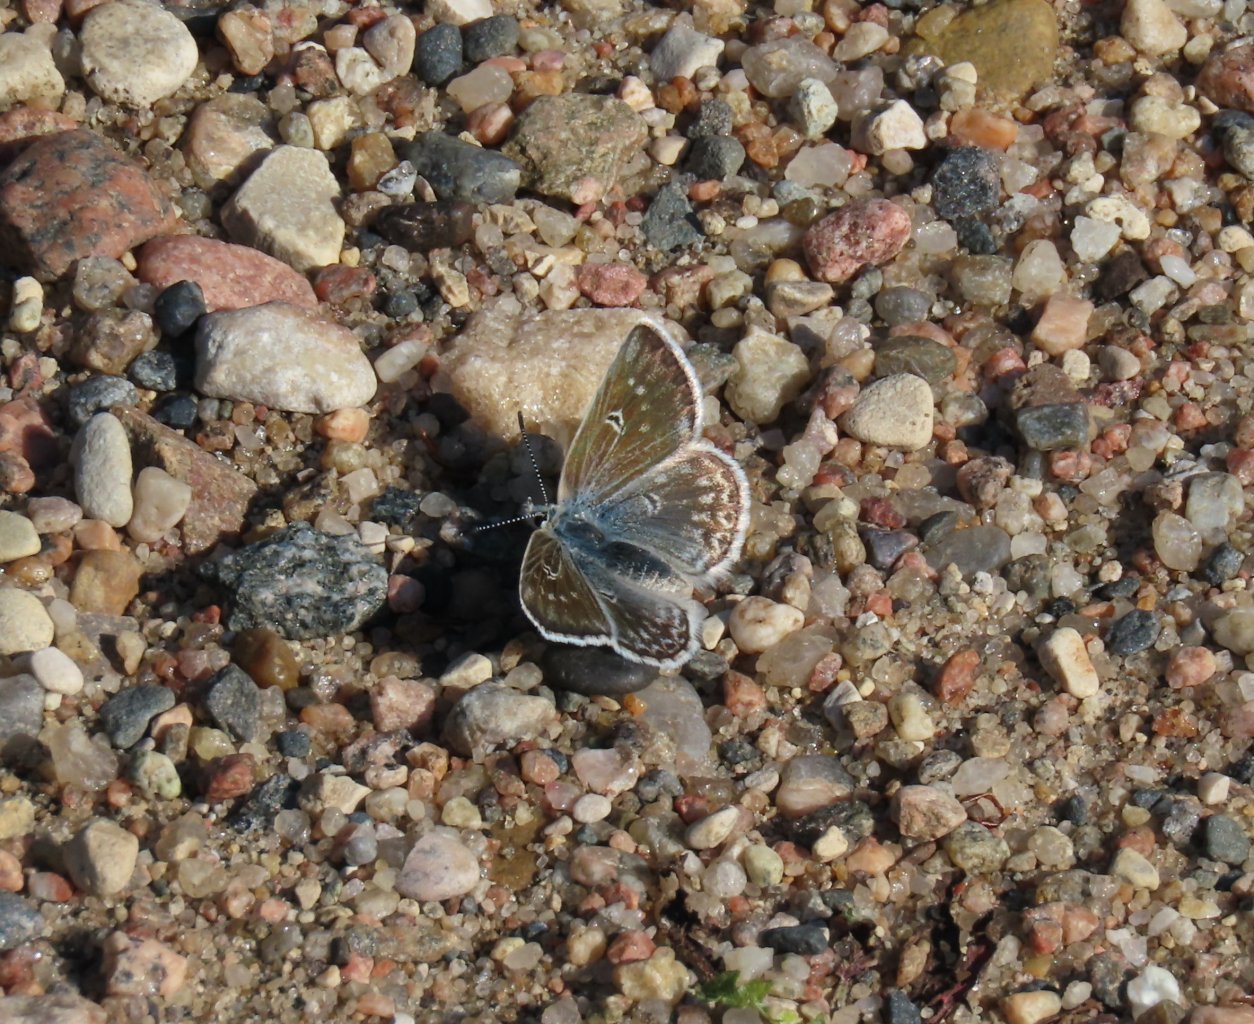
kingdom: Animalia
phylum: Arthropoda
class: Insecta
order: Lepidoptera
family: Lycaenidae
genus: Agriades
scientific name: Agriades glandon
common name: Arctic Blue
